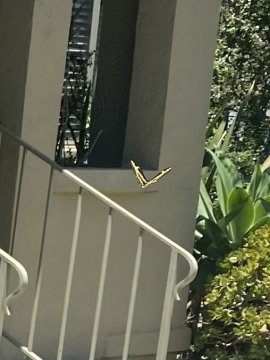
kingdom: Animalia
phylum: Arthropoda
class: Insecta
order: Lepidoptera
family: Papilionidae
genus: Papilio
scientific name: Papilio rumiko
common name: Western Giant Swallowtail
